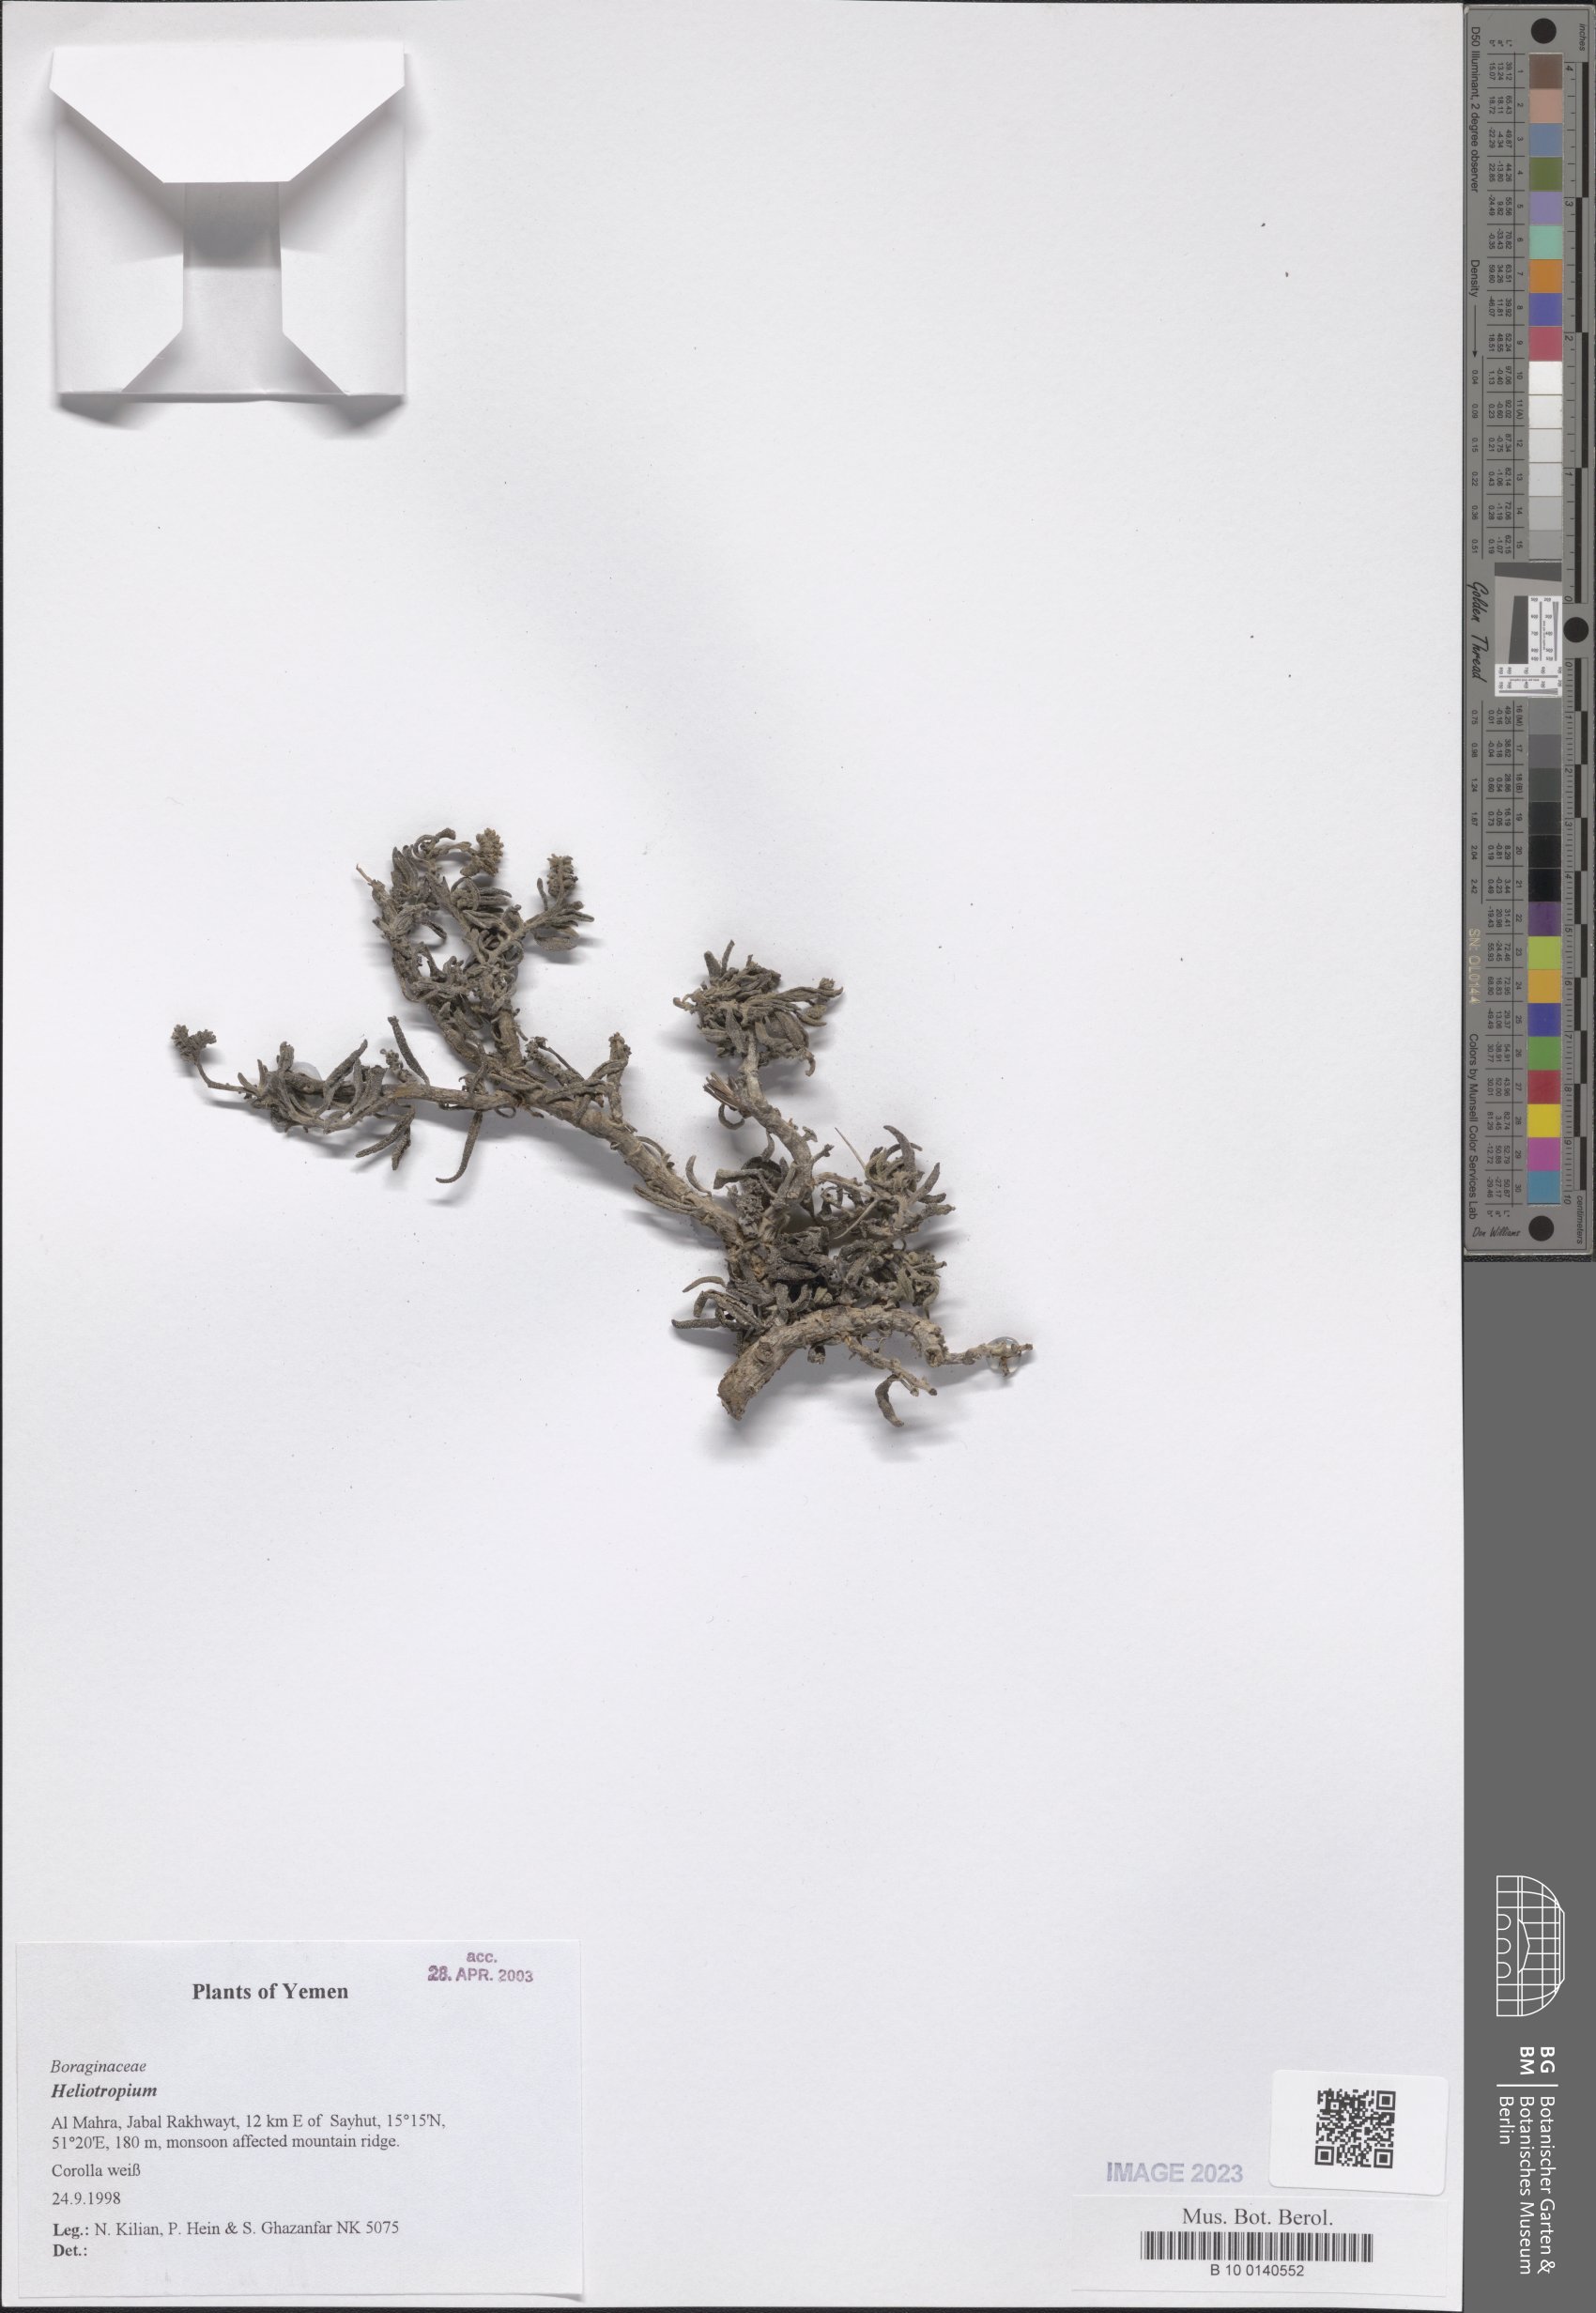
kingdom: Plantae
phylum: Tracheophyta
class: Magnoliopsida
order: Boraginales
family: Heliotropiaceae
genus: Heliotropium
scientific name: Heliotropium
